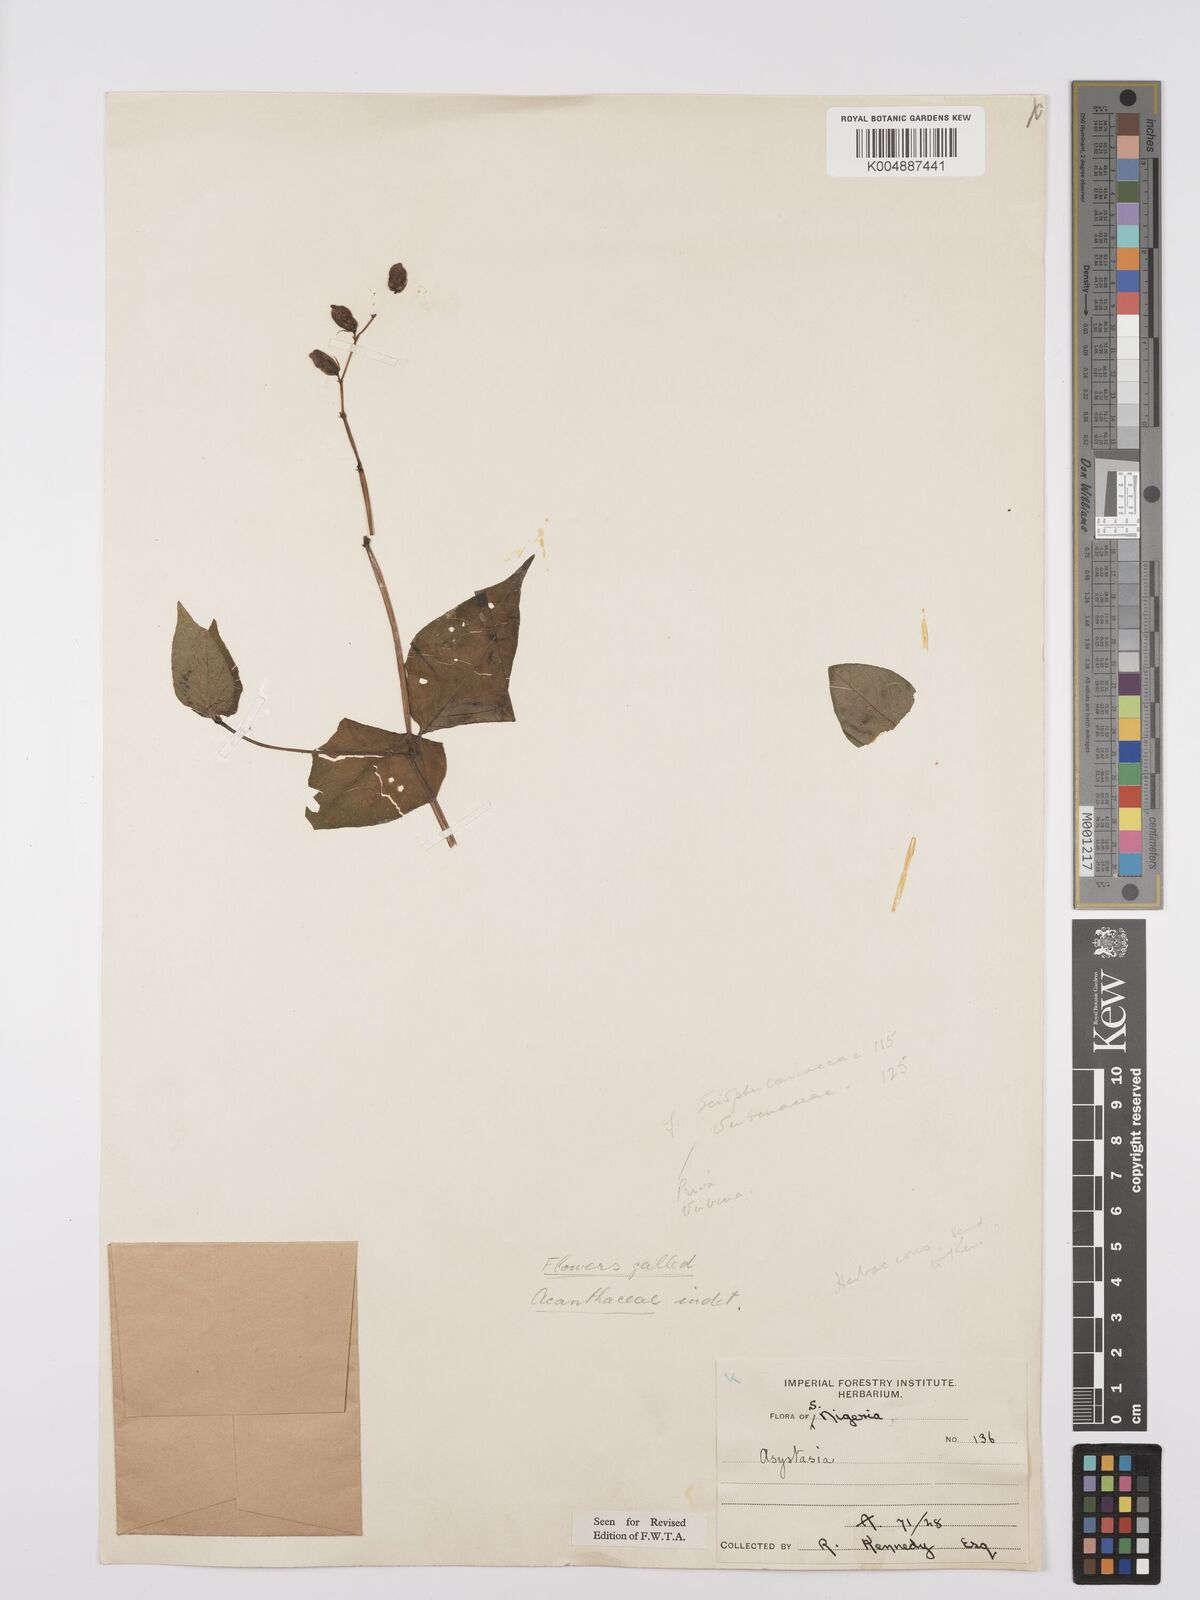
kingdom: Plantae
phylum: Tracheophyta
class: Magnoliopsida
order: Lamiales
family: Acanthaceae
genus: Asystasia
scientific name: Asystasia gangetica
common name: Chinese violet
